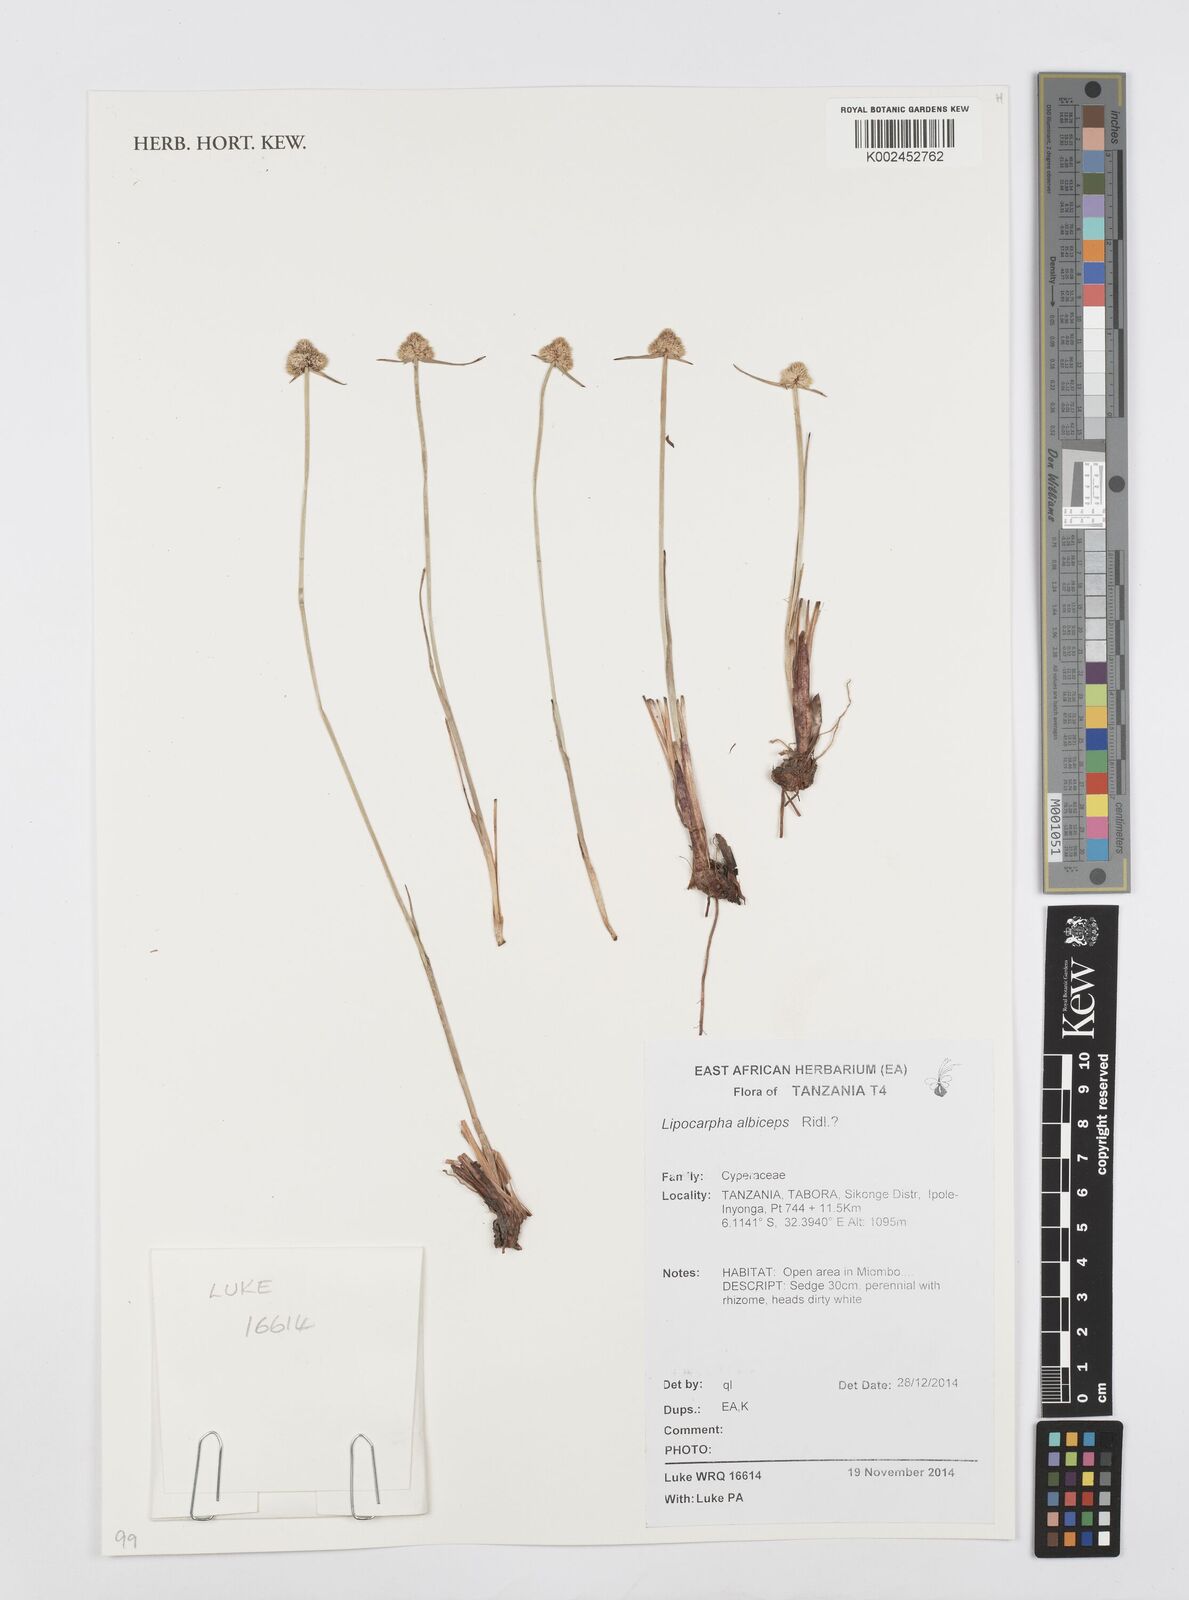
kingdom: Plantae
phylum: Tracheophyta
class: Liliopsida
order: Poales
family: Cyperaceae
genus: Cyperus
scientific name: Cyperus albiceps
